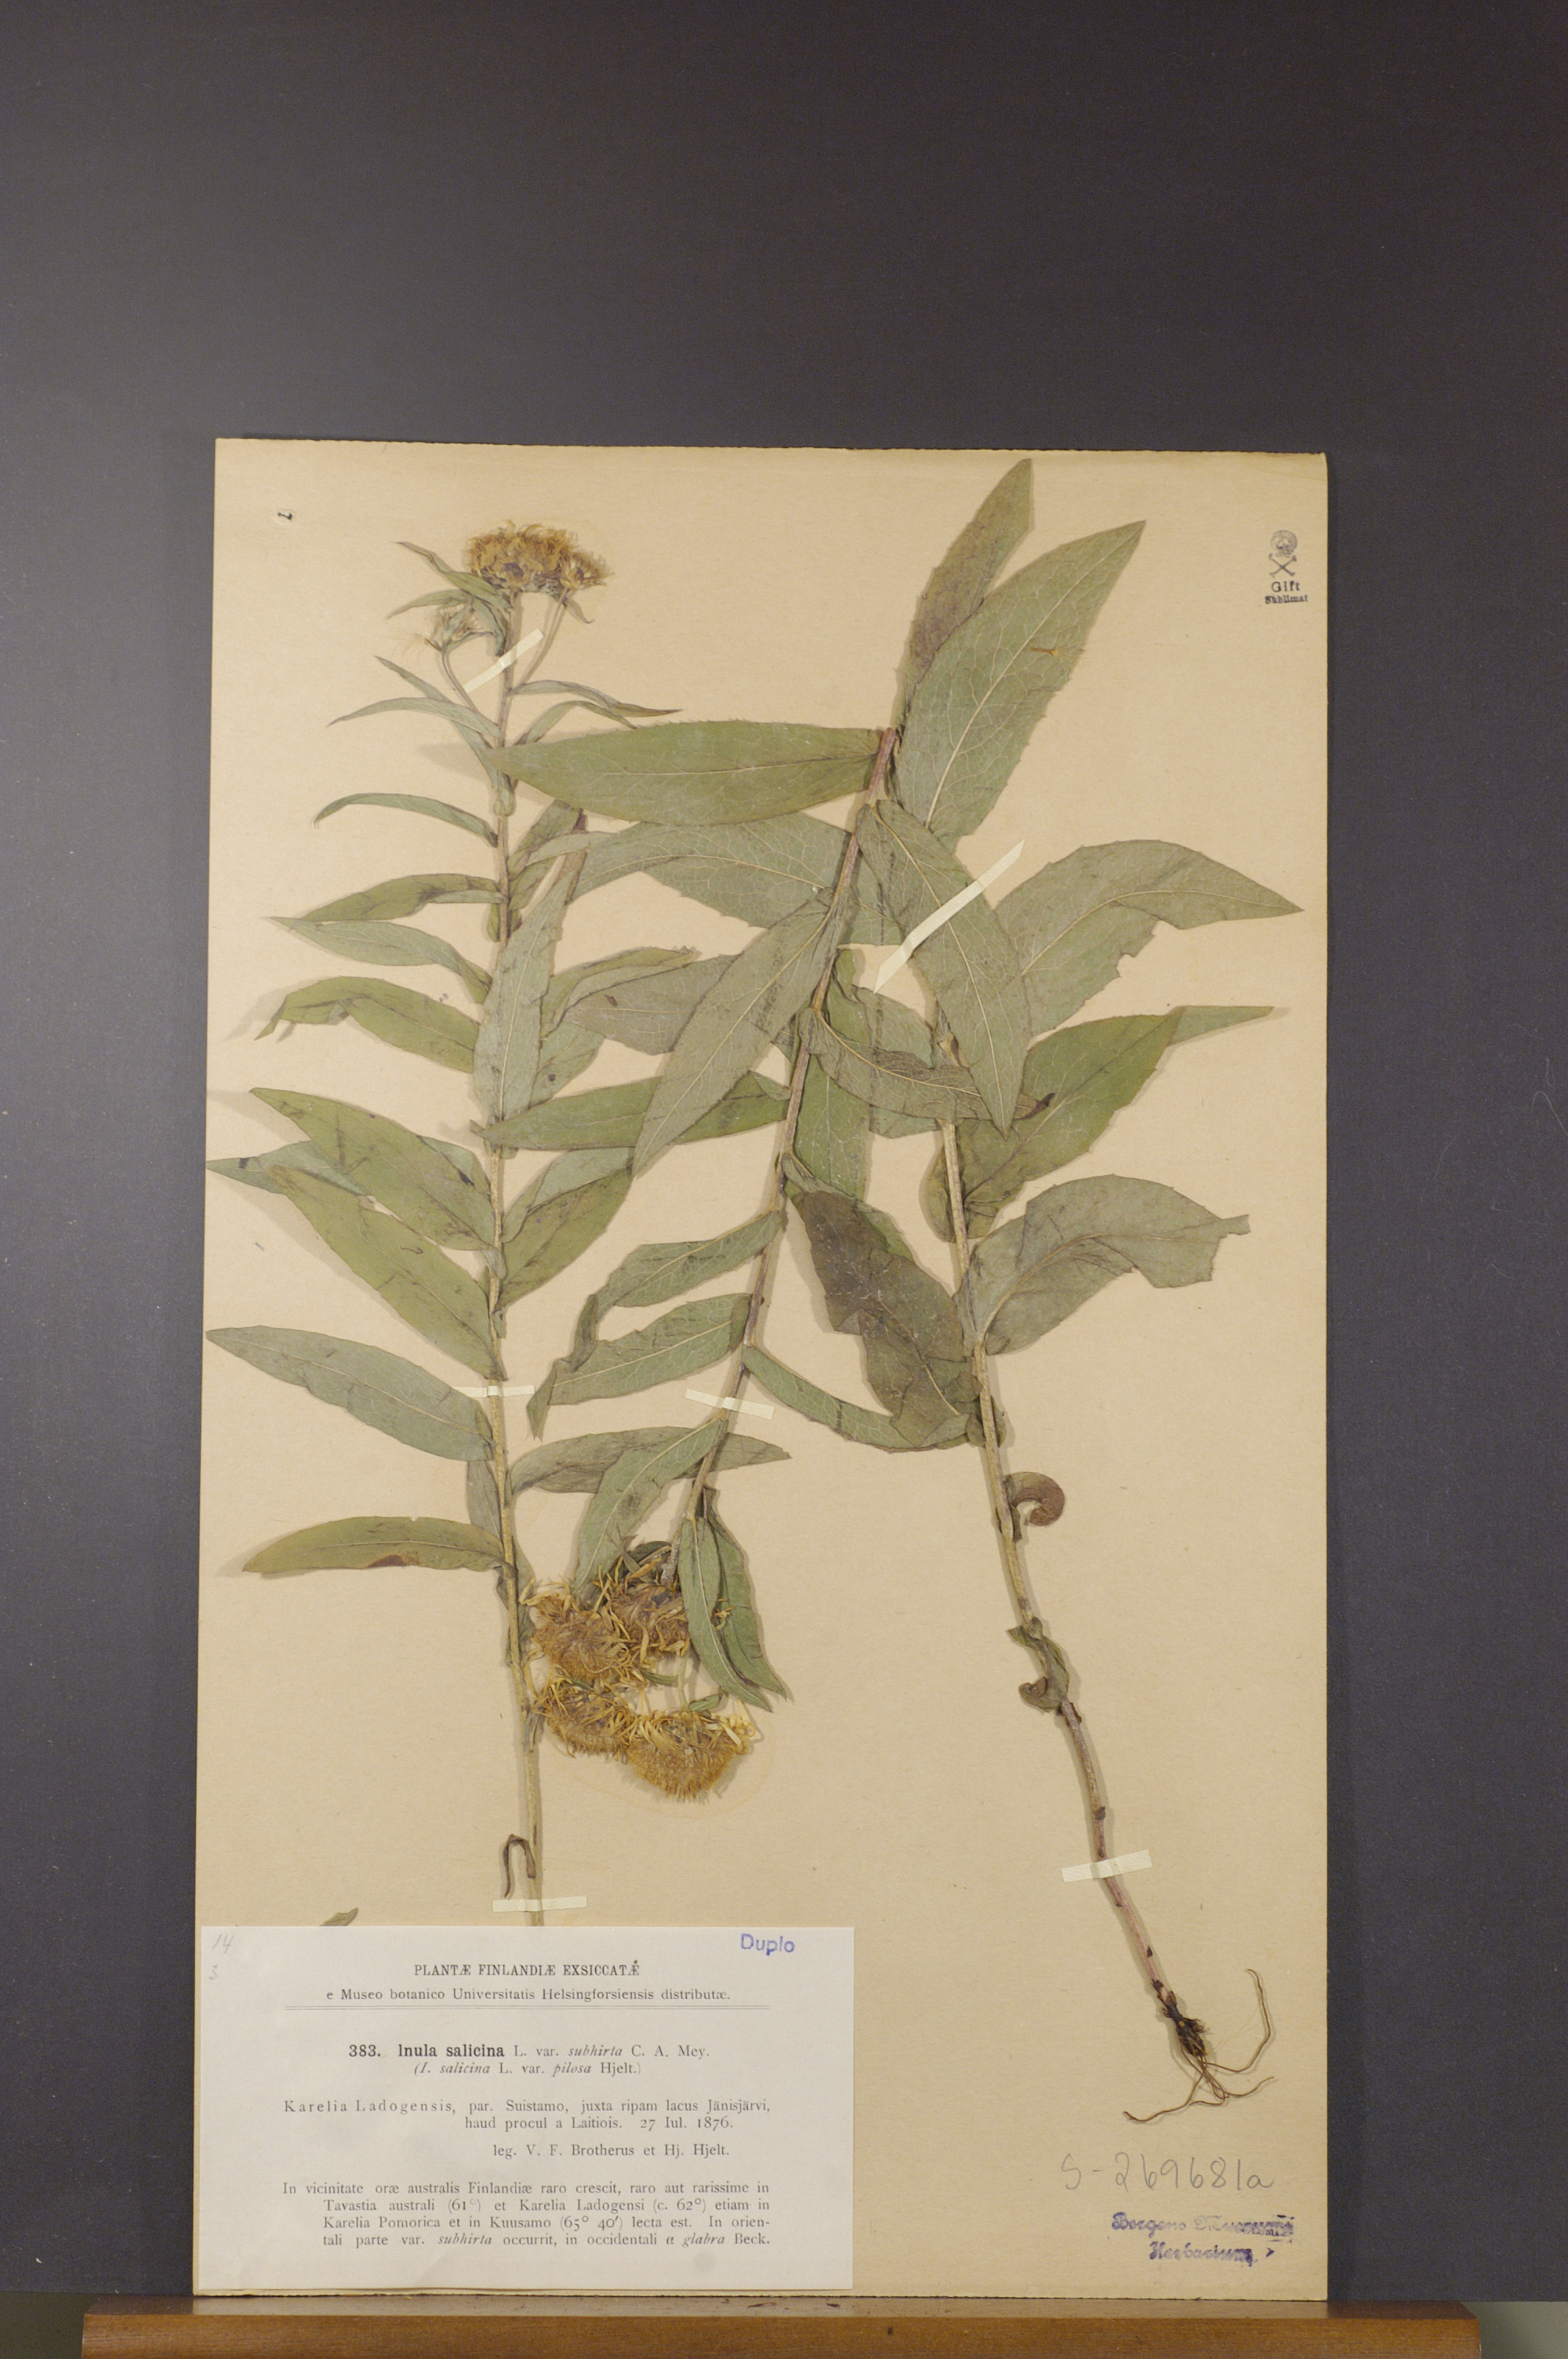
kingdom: Plantae
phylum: Tracheophyta
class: Magnoliopsida
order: Asterales
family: Asteraceae
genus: Pentanema
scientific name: Pentanema salicinum
